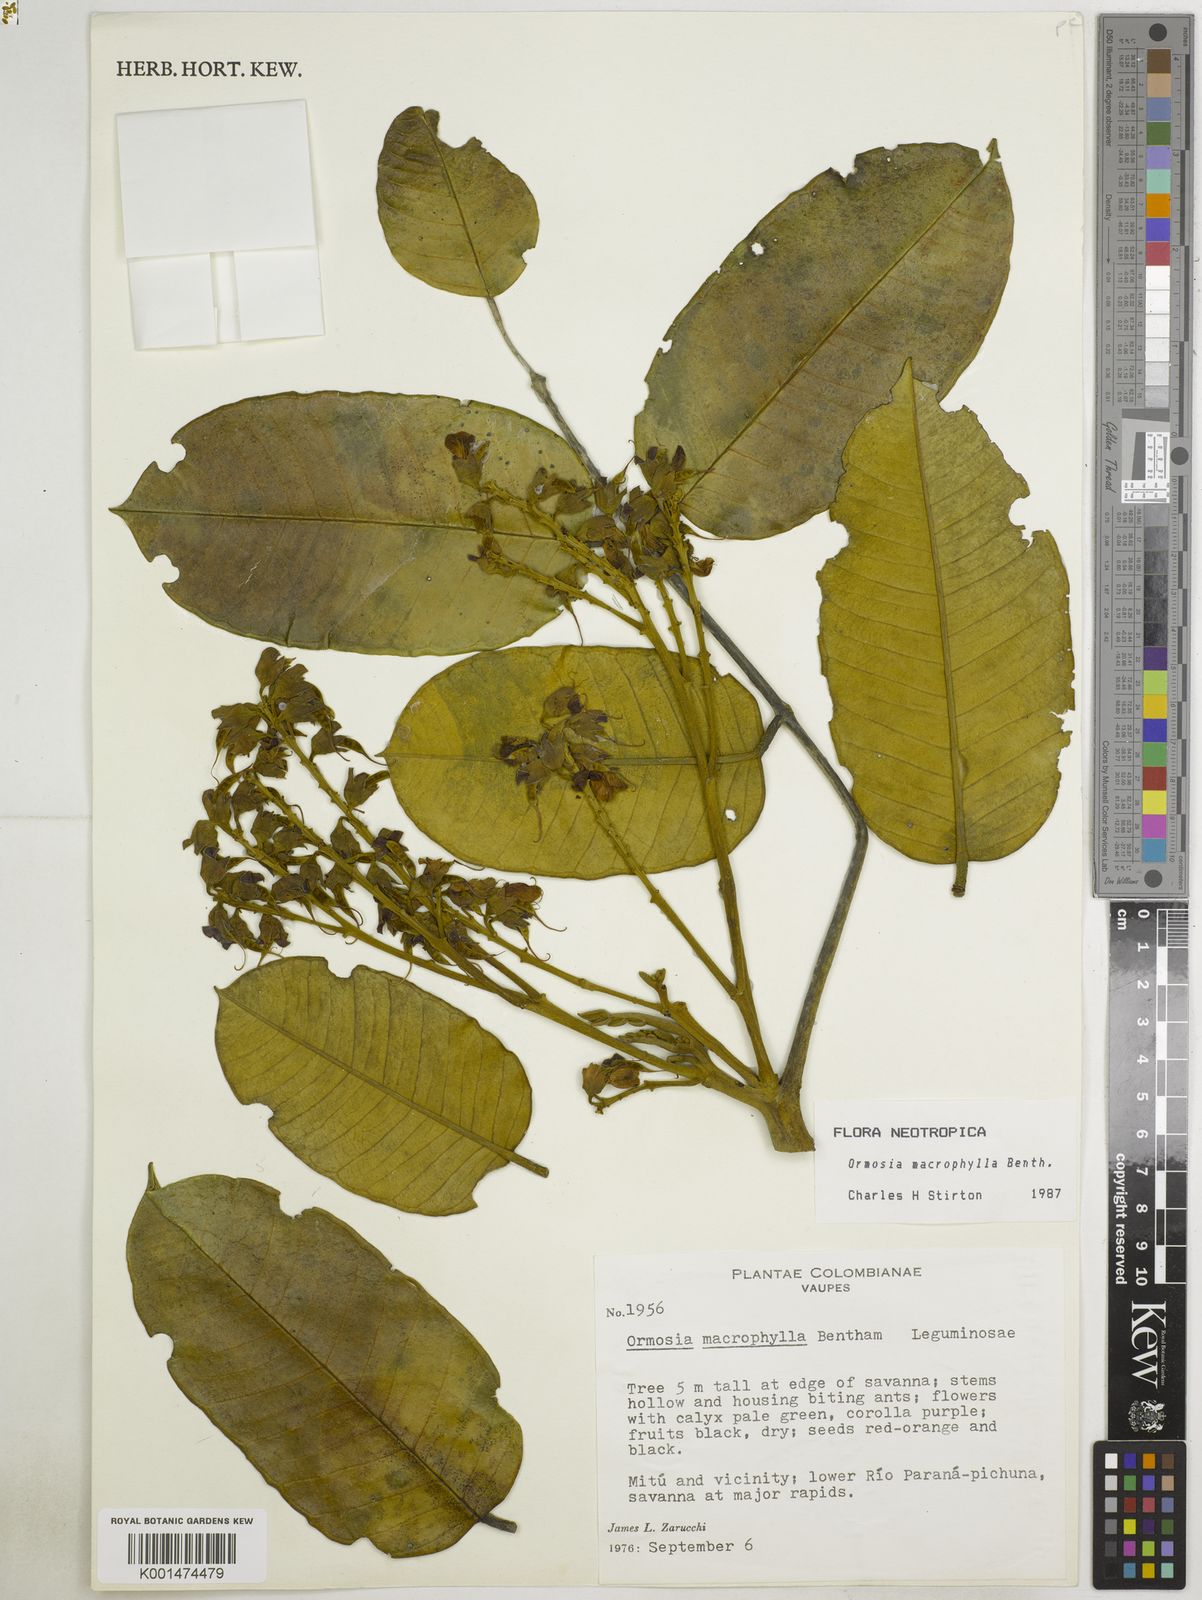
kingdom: Plantae
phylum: Tracheophyta
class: Magnoliopsida
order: Fabales
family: Fabaceae
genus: Ormosia
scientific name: Ormosia macrophylla
